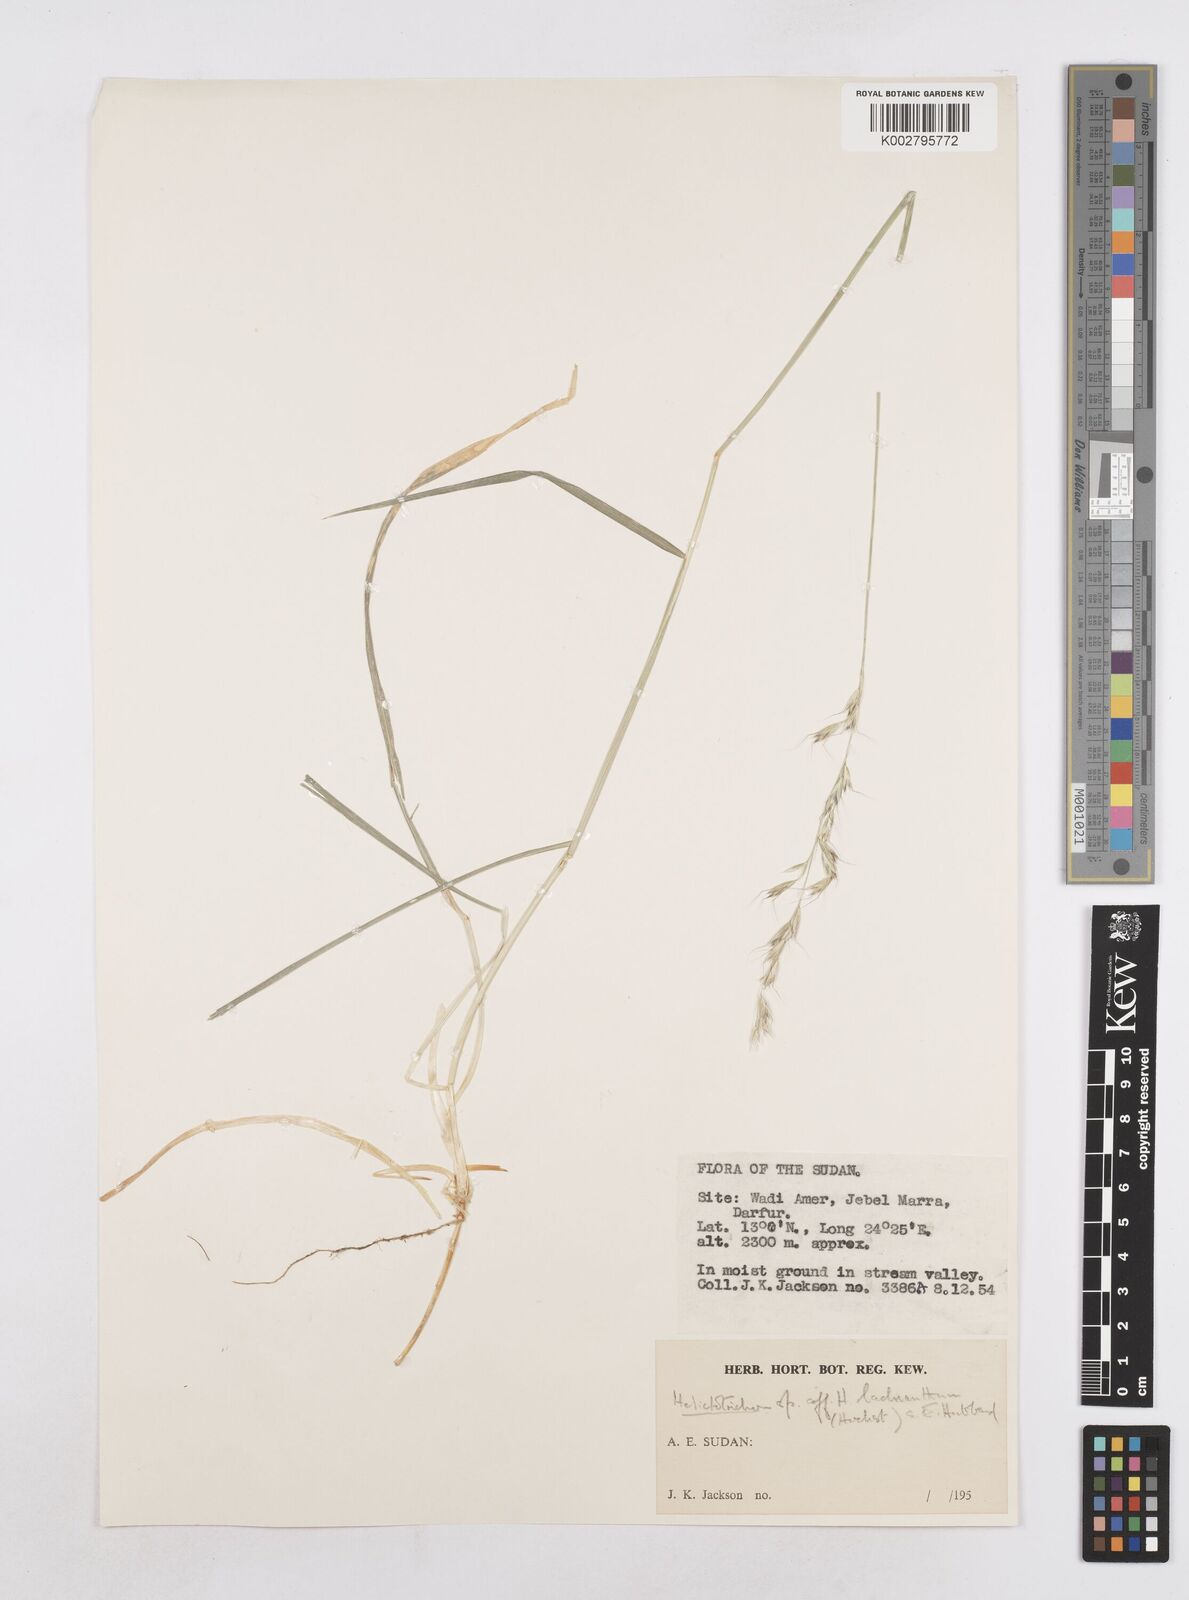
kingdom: Plantae
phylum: Tracheophyta
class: Liliopsida
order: Poales
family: Poaceae
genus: Trisetopsis
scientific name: Trisetopsis elongata
